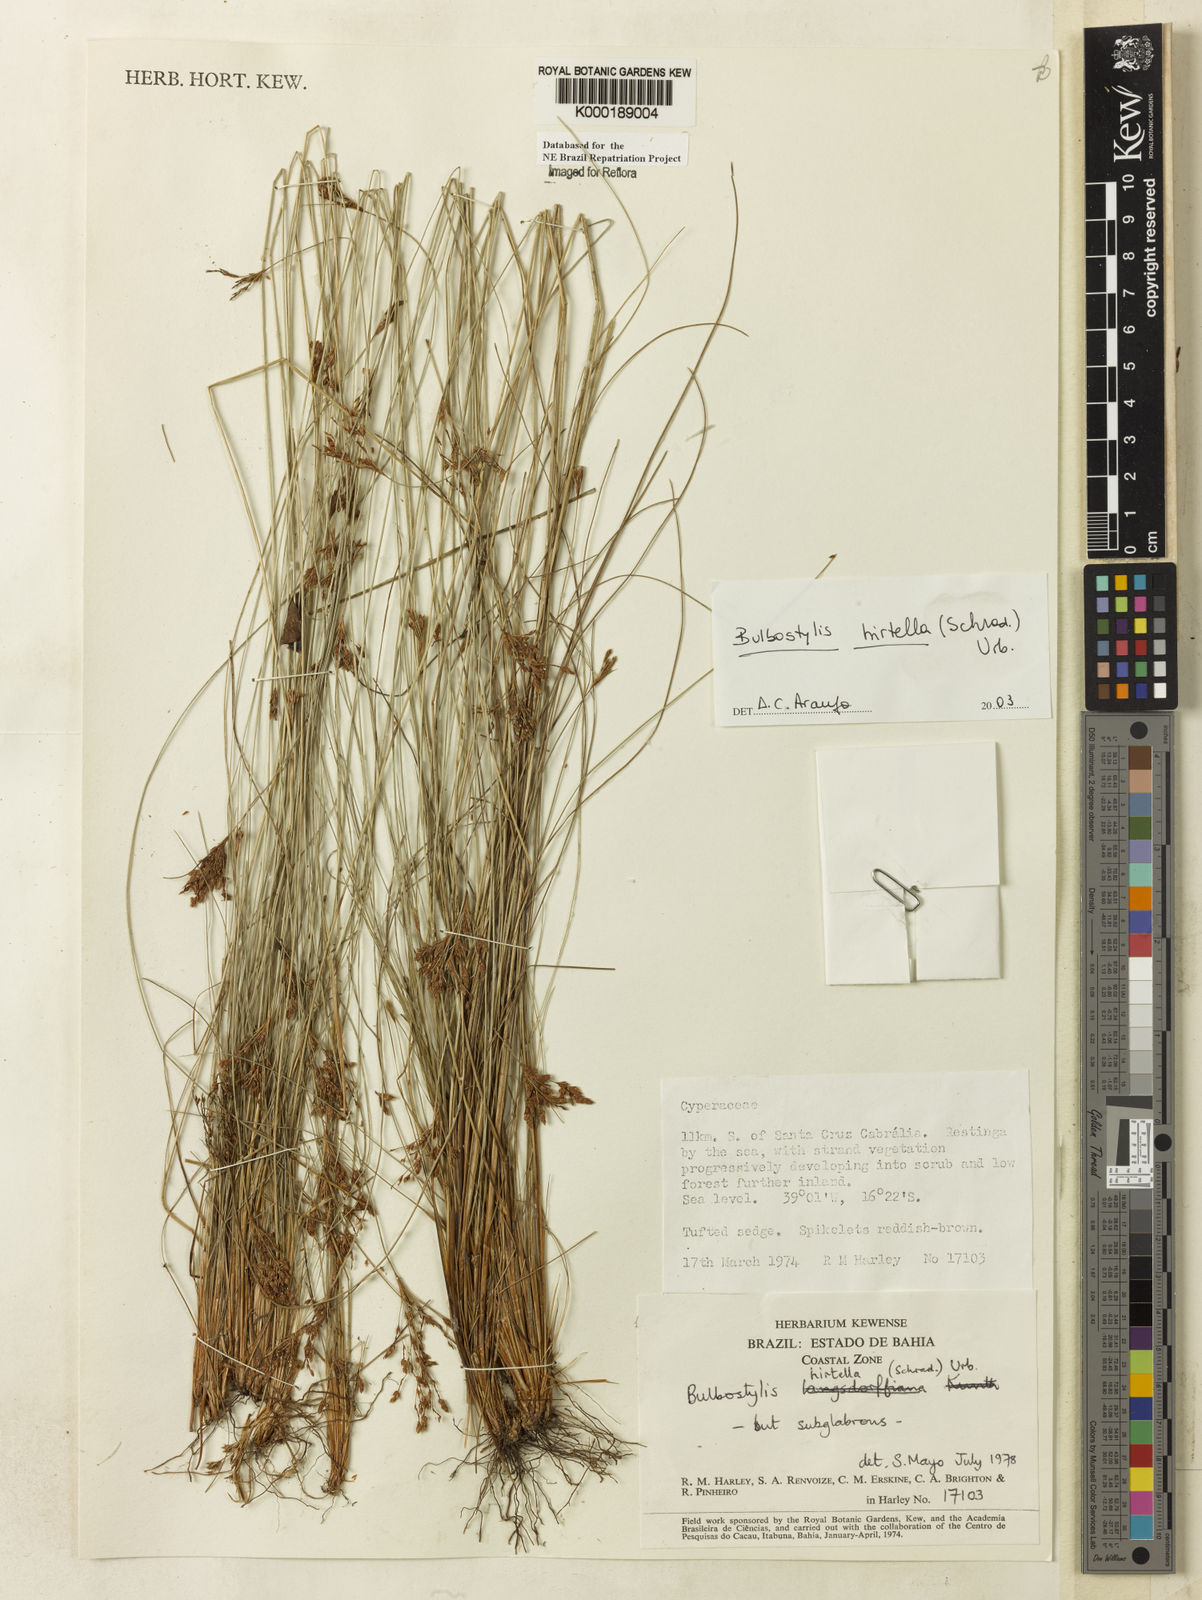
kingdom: Plantae
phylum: Tracheophyta
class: Liliopsida
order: Poales
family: Cyperaceae
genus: Bulbostylis
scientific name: Bulbostylis
